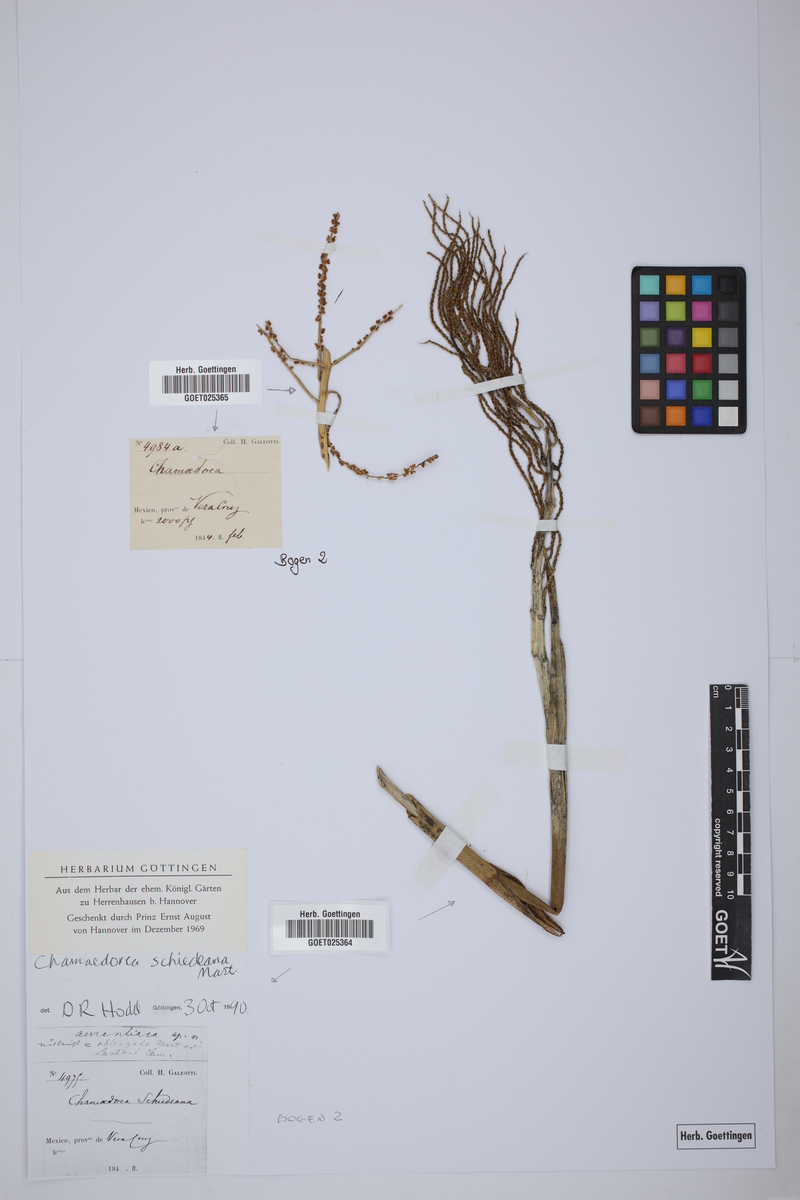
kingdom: Plantae
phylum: Tracheophyta
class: Liliopsida
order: Arecales
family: Arecaceae
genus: Chamaedorea
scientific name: Chamaedorea
